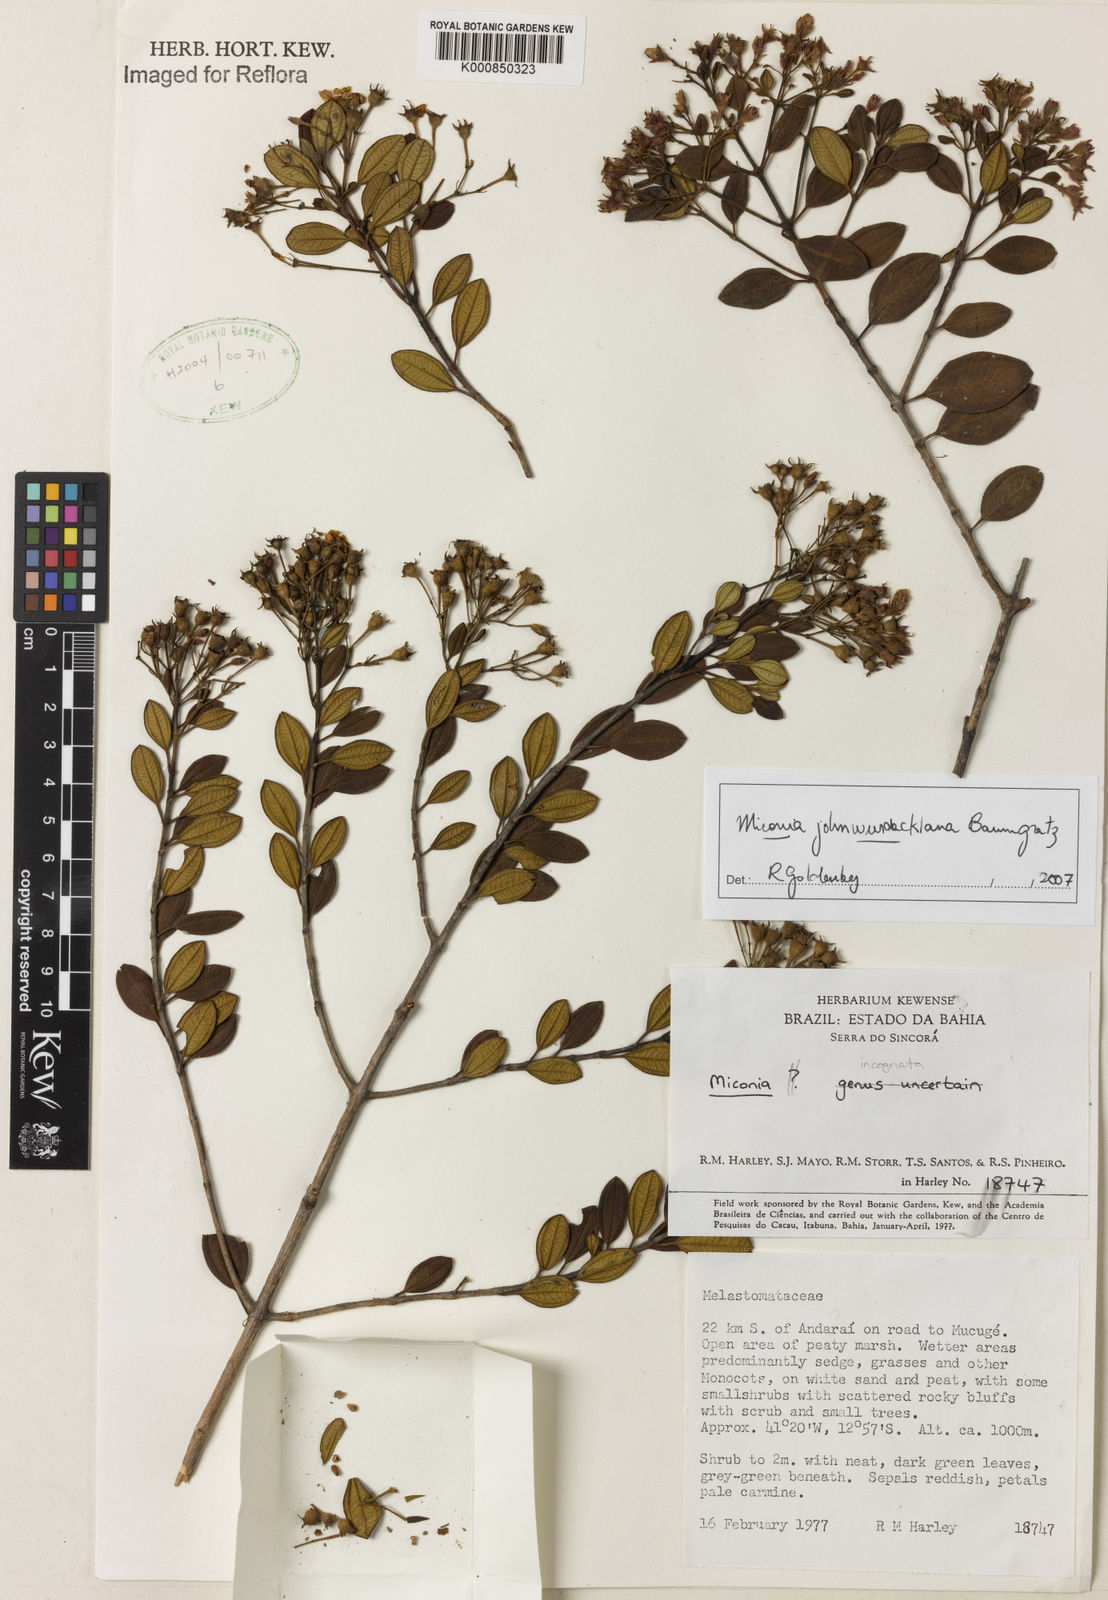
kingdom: Plantae
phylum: Tracheophyta
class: Magnoliopsida
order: Myrtales
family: Melastomataceae
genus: Miconia
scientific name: Miconia
